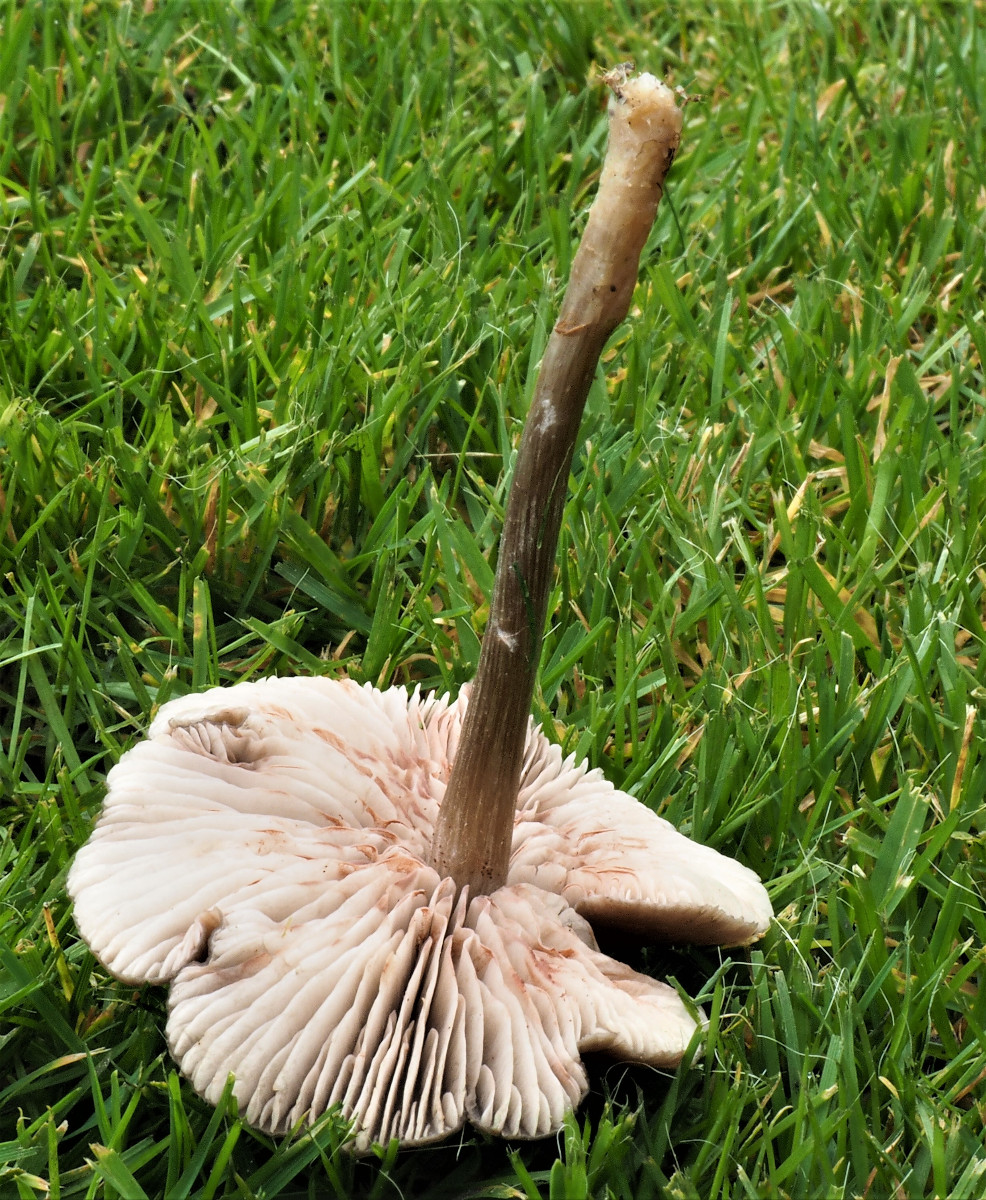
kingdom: Fungi
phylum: Basidiomycota
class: Agaricomycetes
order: Agaricales
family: Entolomataceae
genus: Entoloma
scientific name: Entoloma
